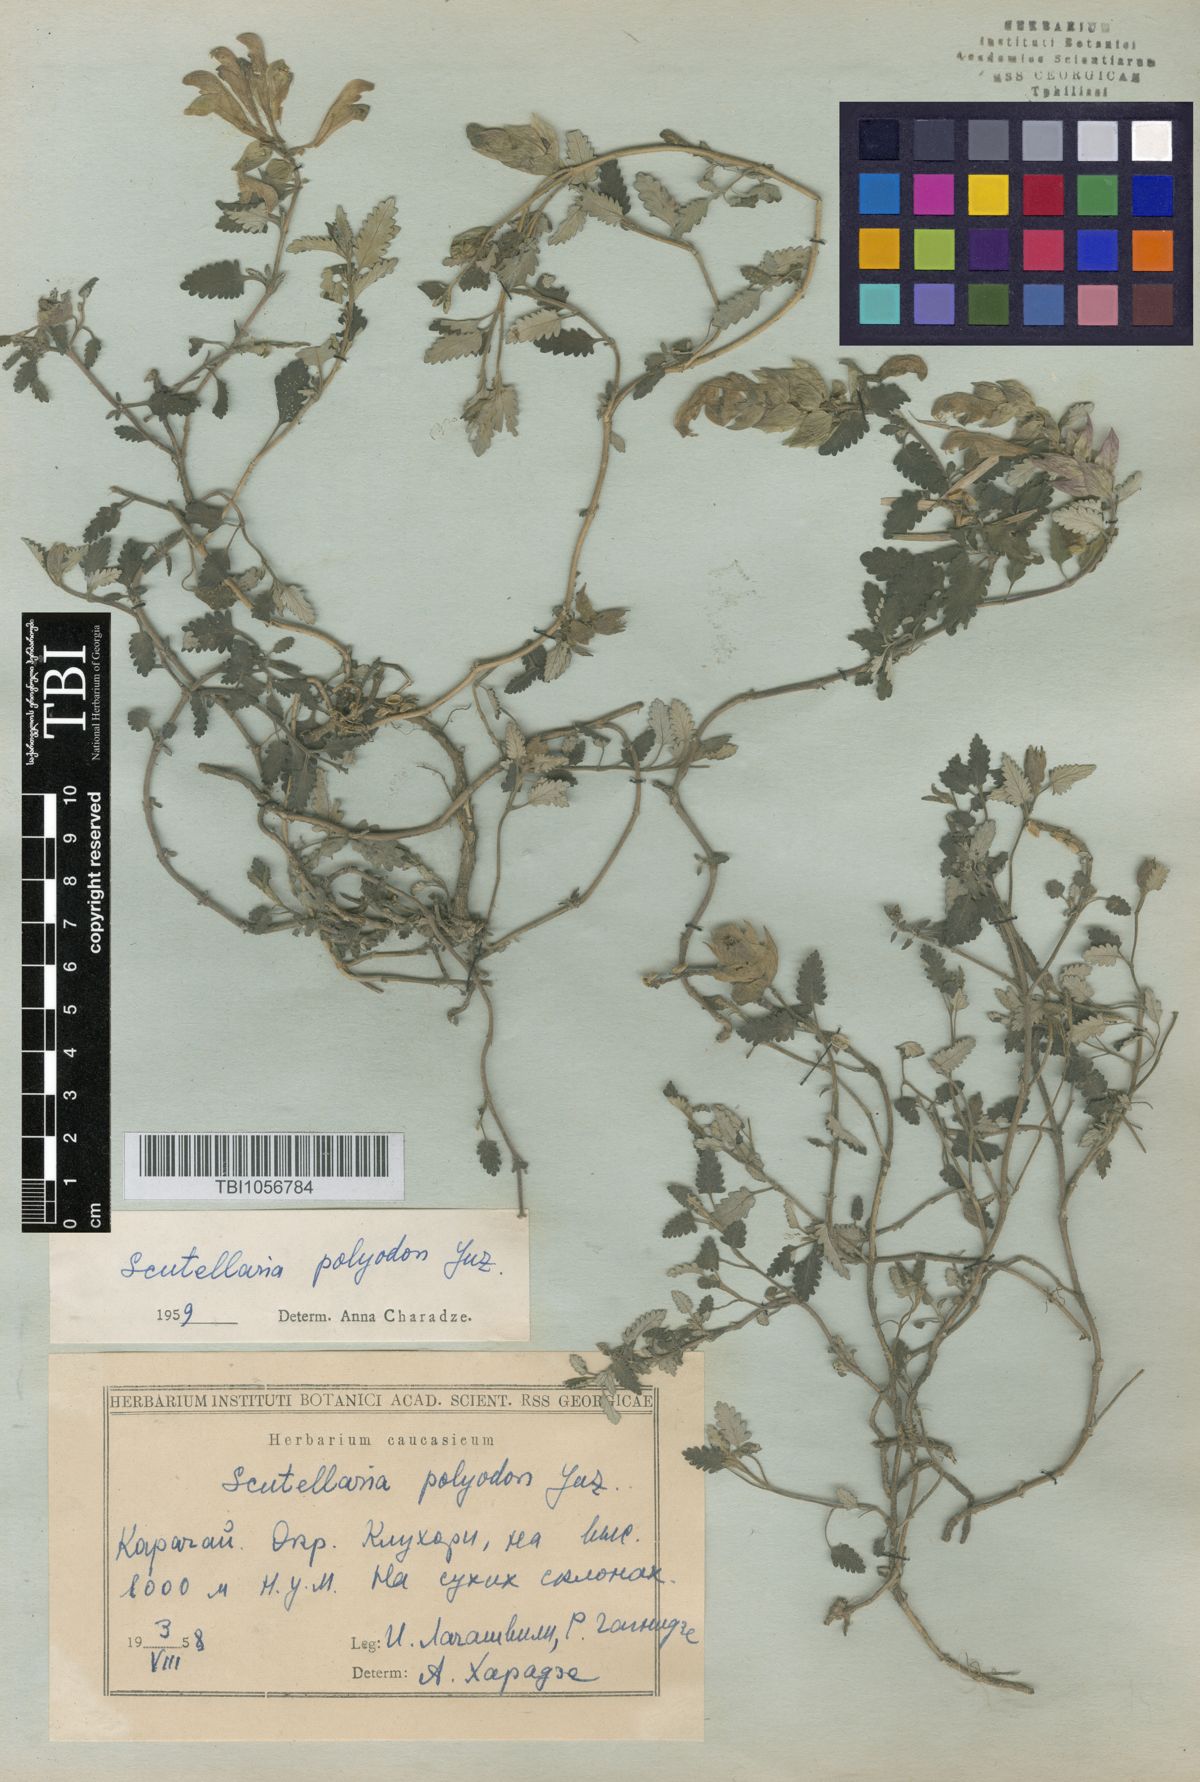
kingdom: Plantae
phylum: Tracheophyta
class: Magnoliopsida
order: Lamiales
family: Lamiaceae
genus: Scutellaria
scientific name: Scutellaria caucasica
